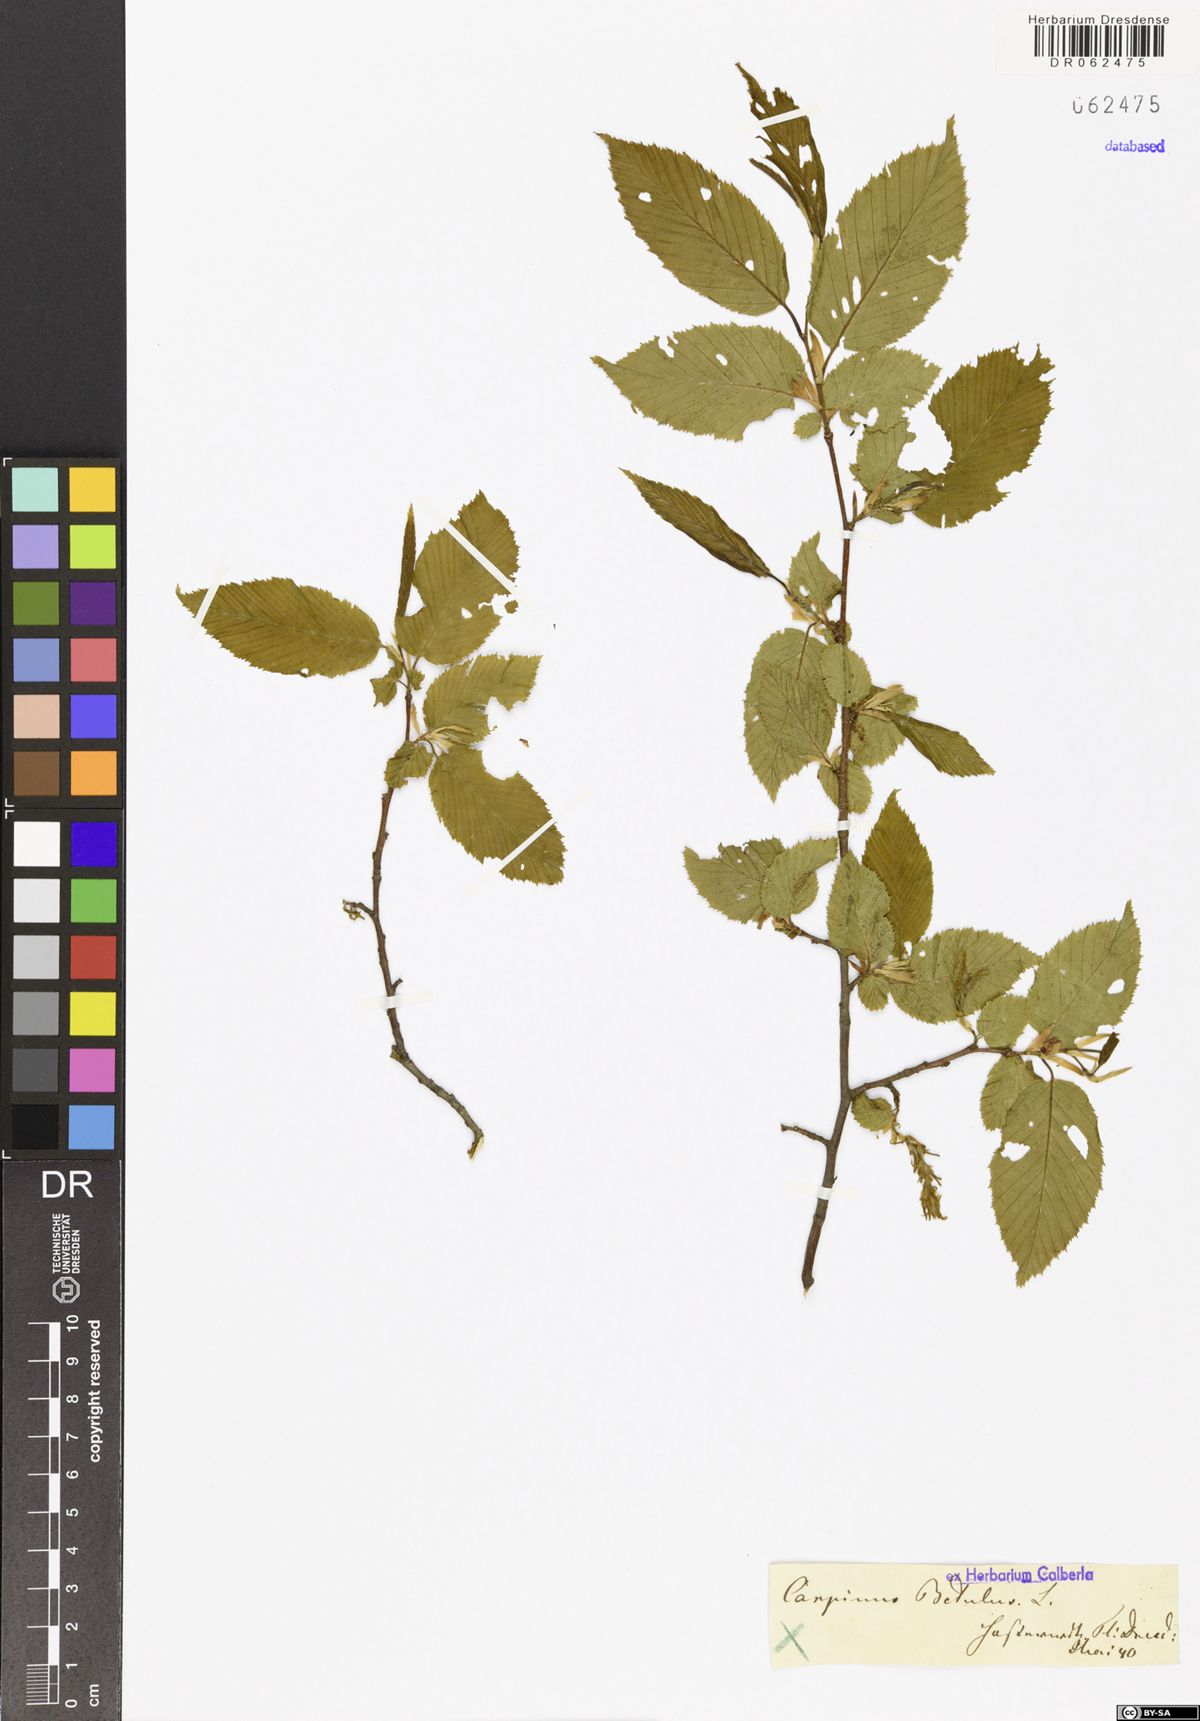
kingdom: Plantae
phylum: Tracheophyta
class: Magnoliopsida
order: Fagales
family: Betulaceae
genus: Carpinus
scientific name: Carpinus betulus
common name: Hornbeam
